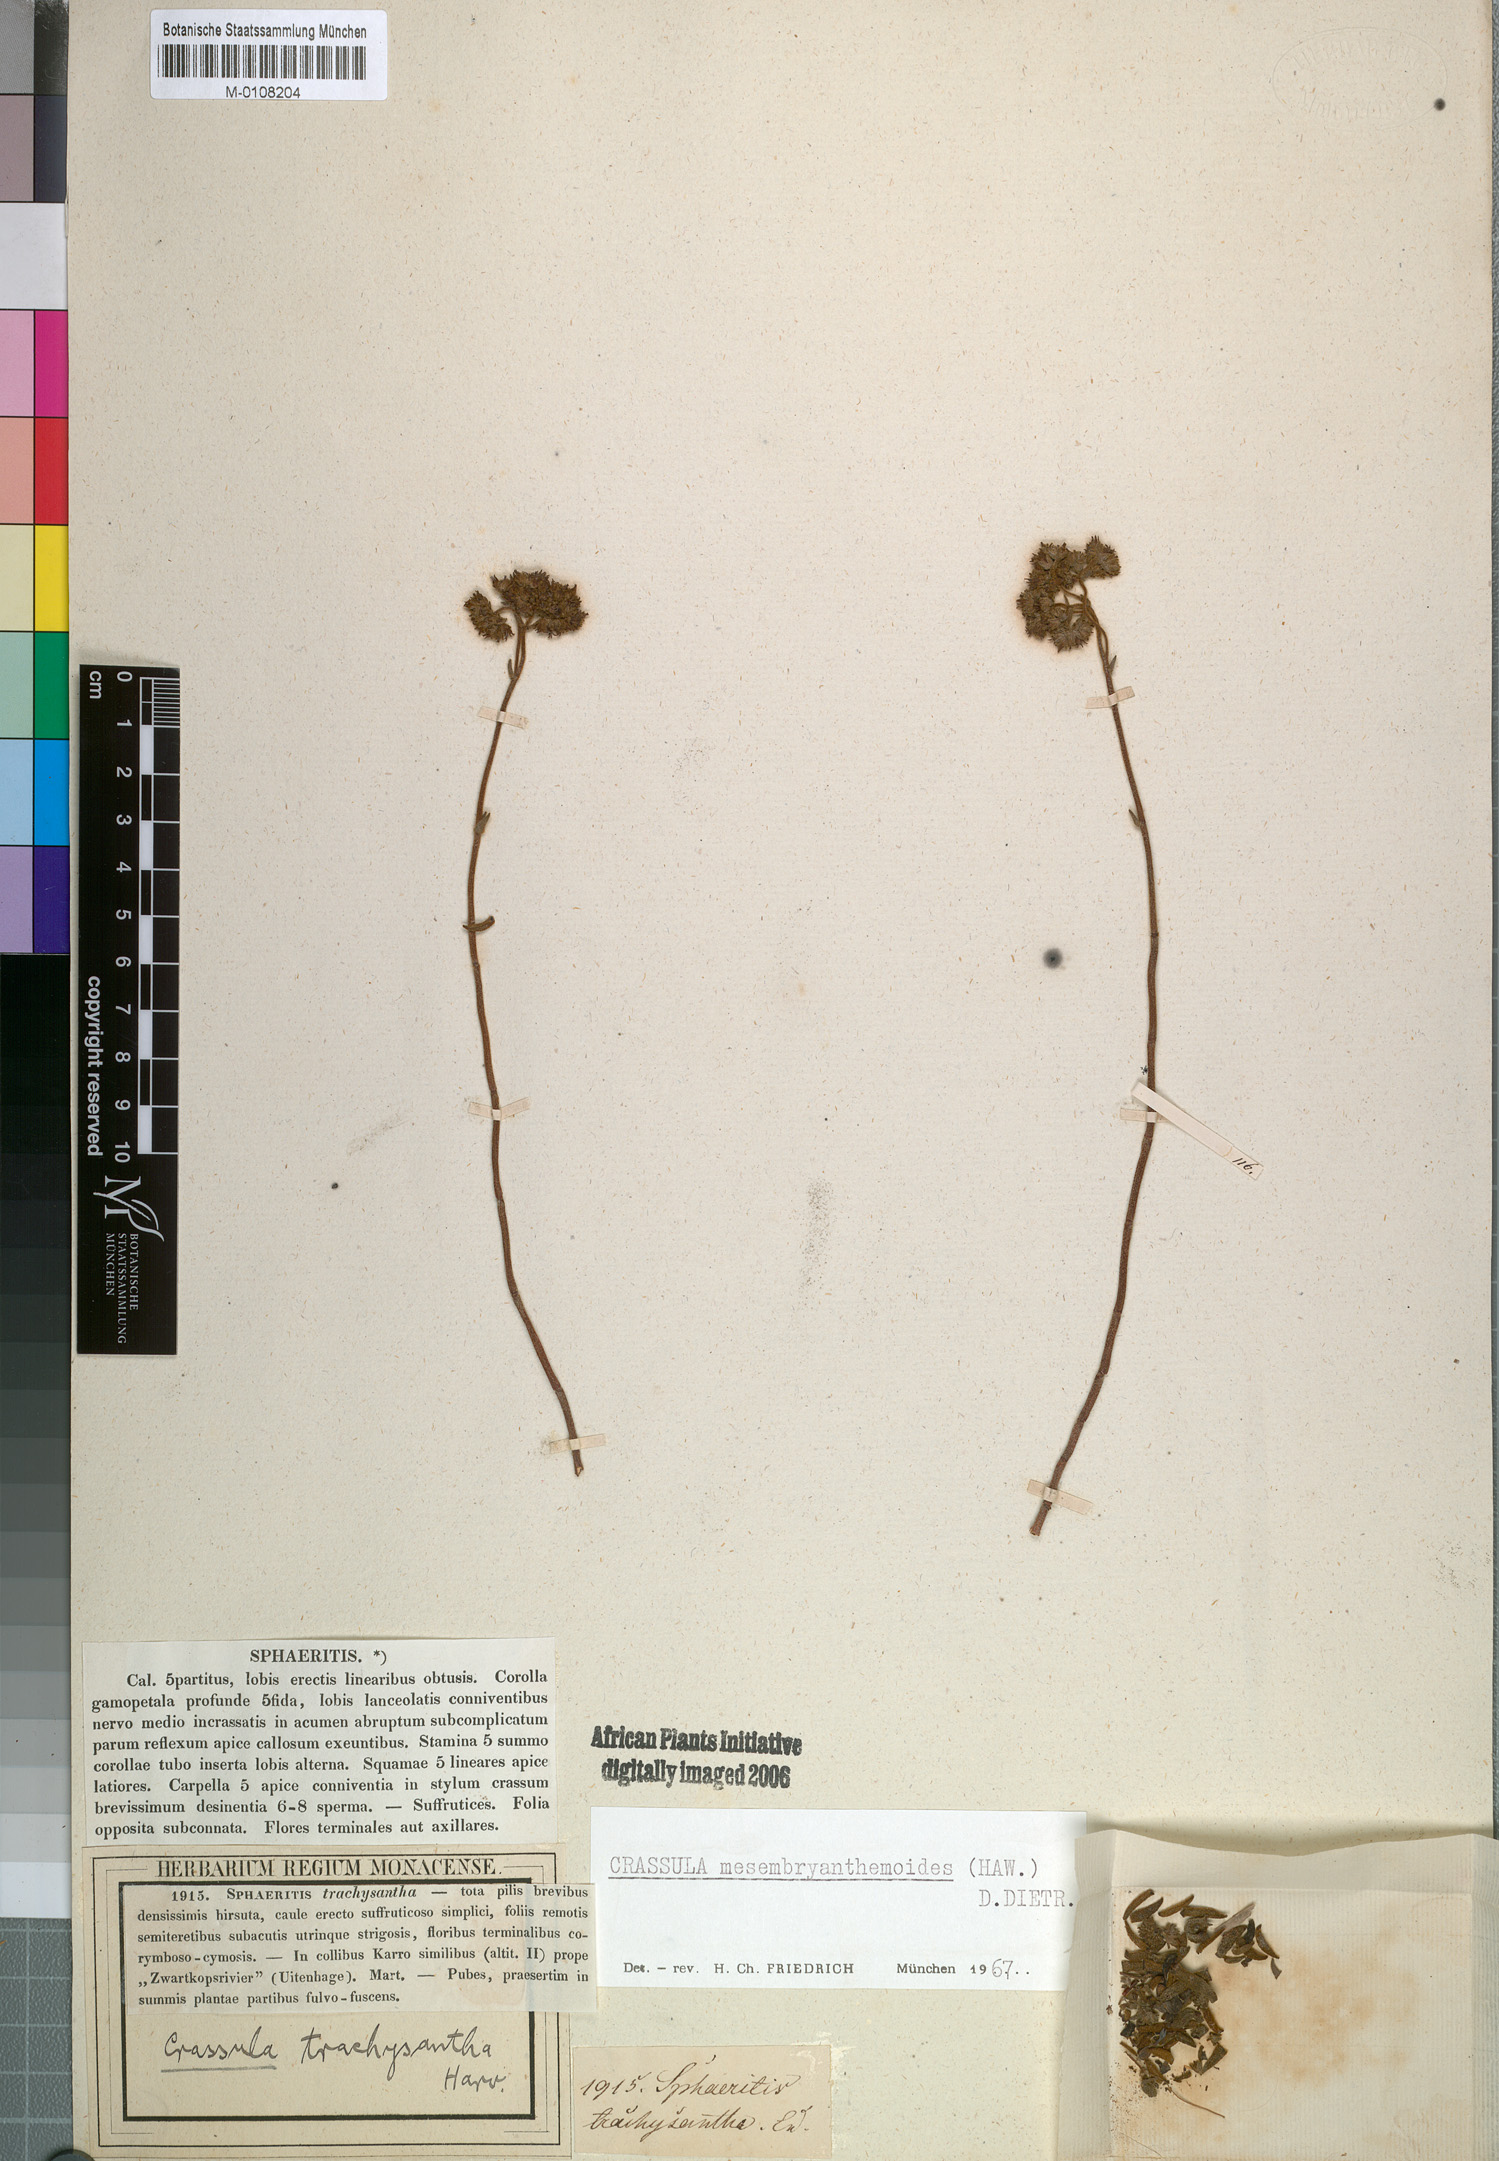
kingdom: Plantae
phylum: Tracheophyta
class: Magnoliopsida
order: Saxifragales
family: Crassulaceae
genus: Crassula
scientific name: Crassula mesembryanthoides
